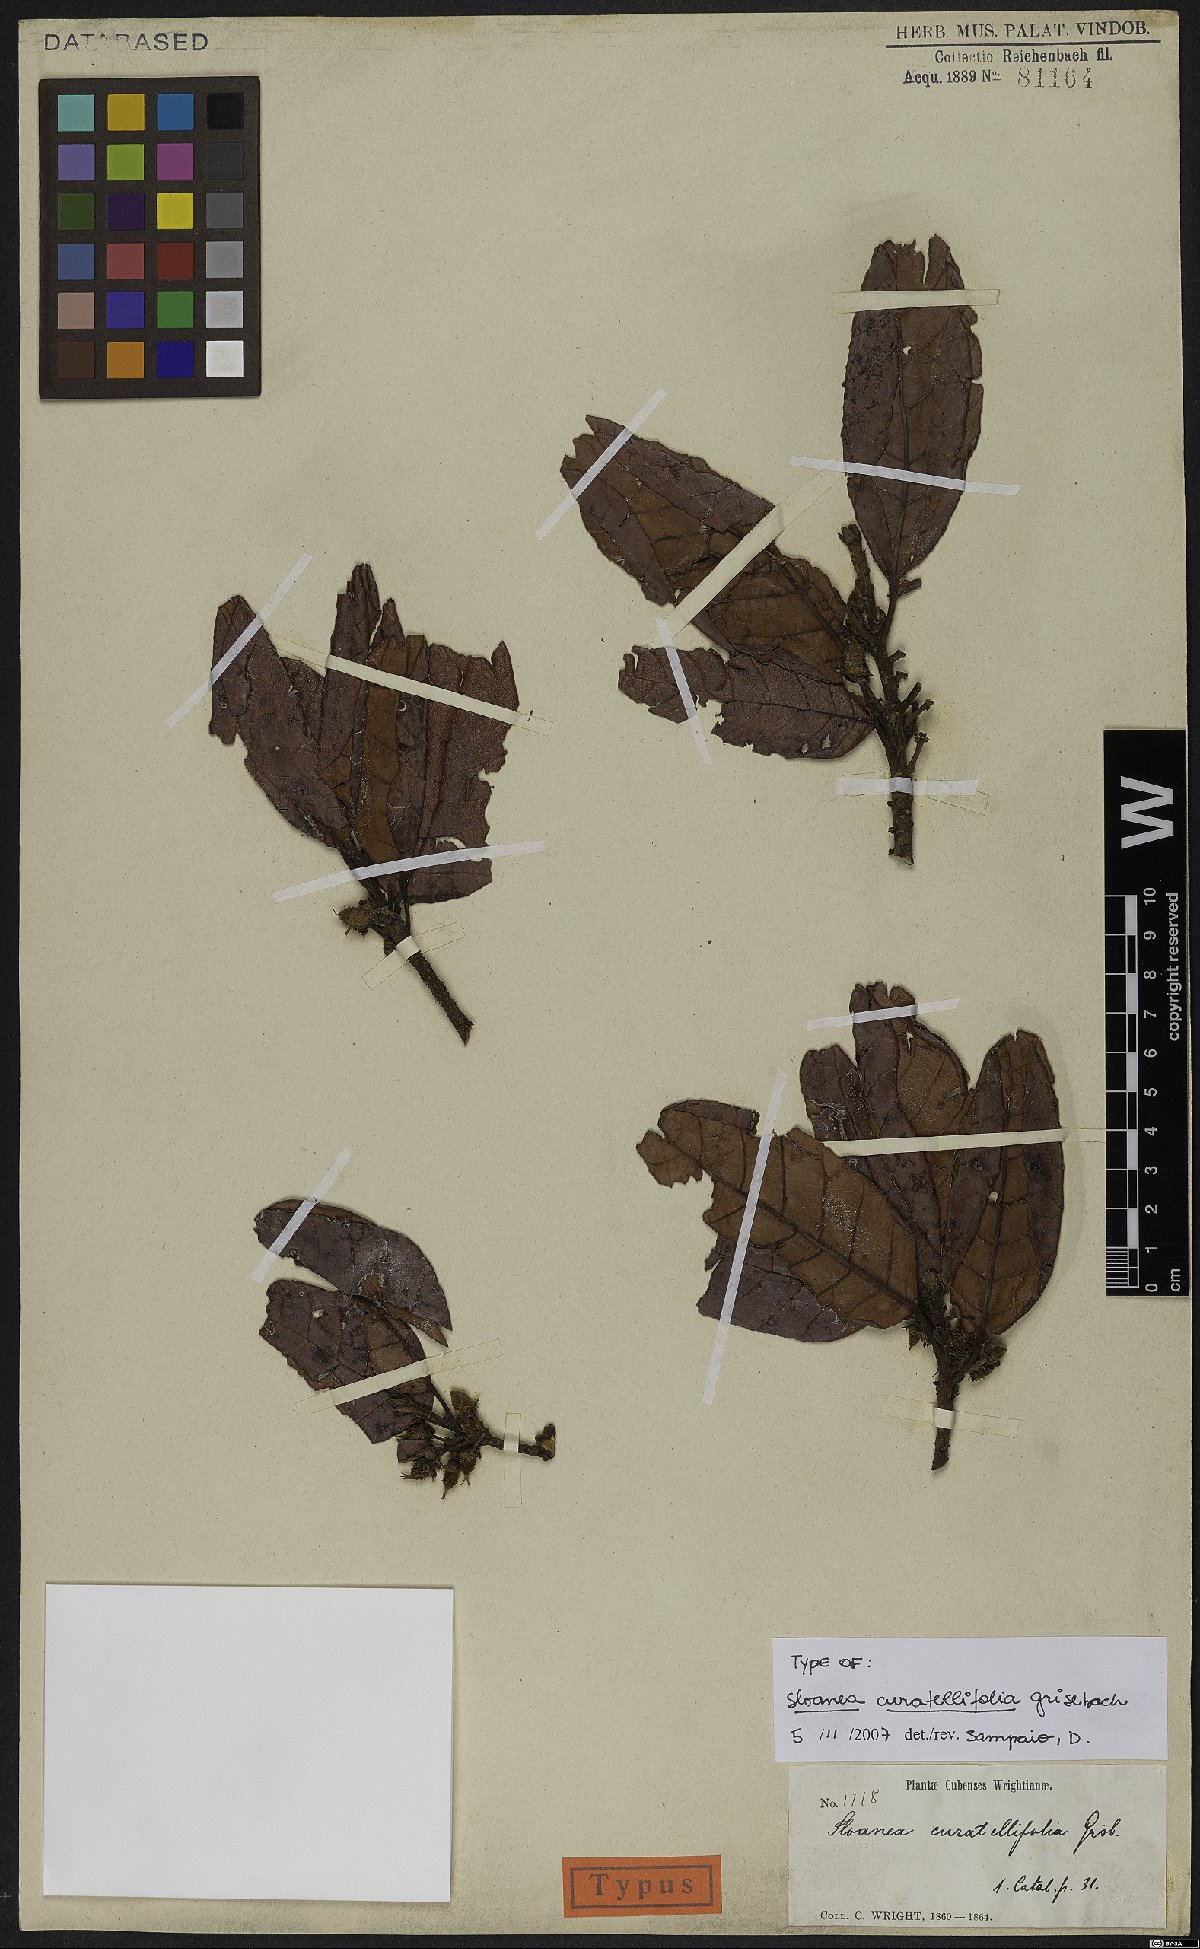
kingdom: Plantae
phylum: Tracheophyta
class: Magnoliopsida
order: Oxalidales
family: Elaeocarpaceae
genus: Sloanea
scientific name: Sloanea curatellifolia
